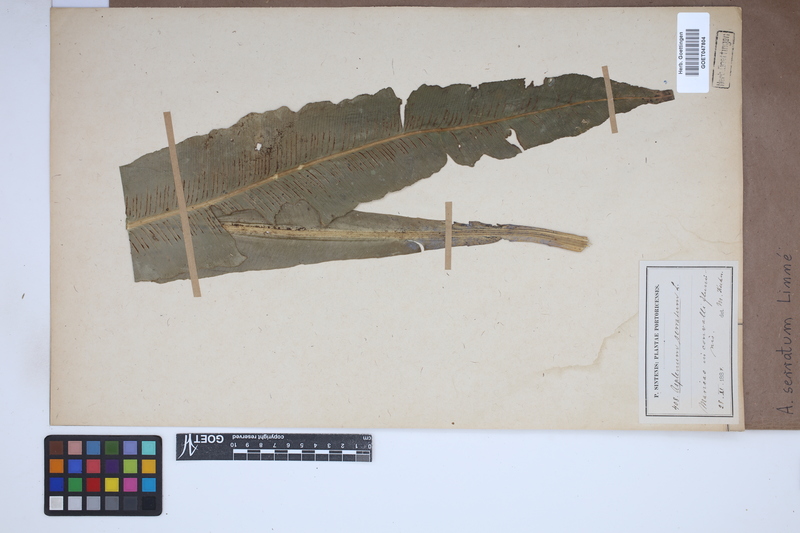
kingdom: Plantae
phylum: Tracheophyta
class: Polypodiopsida
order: Polypodiales
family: Aspleniaceae
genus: Asplenium
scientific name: Asplenium serratum
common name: Wild birdnest fern
